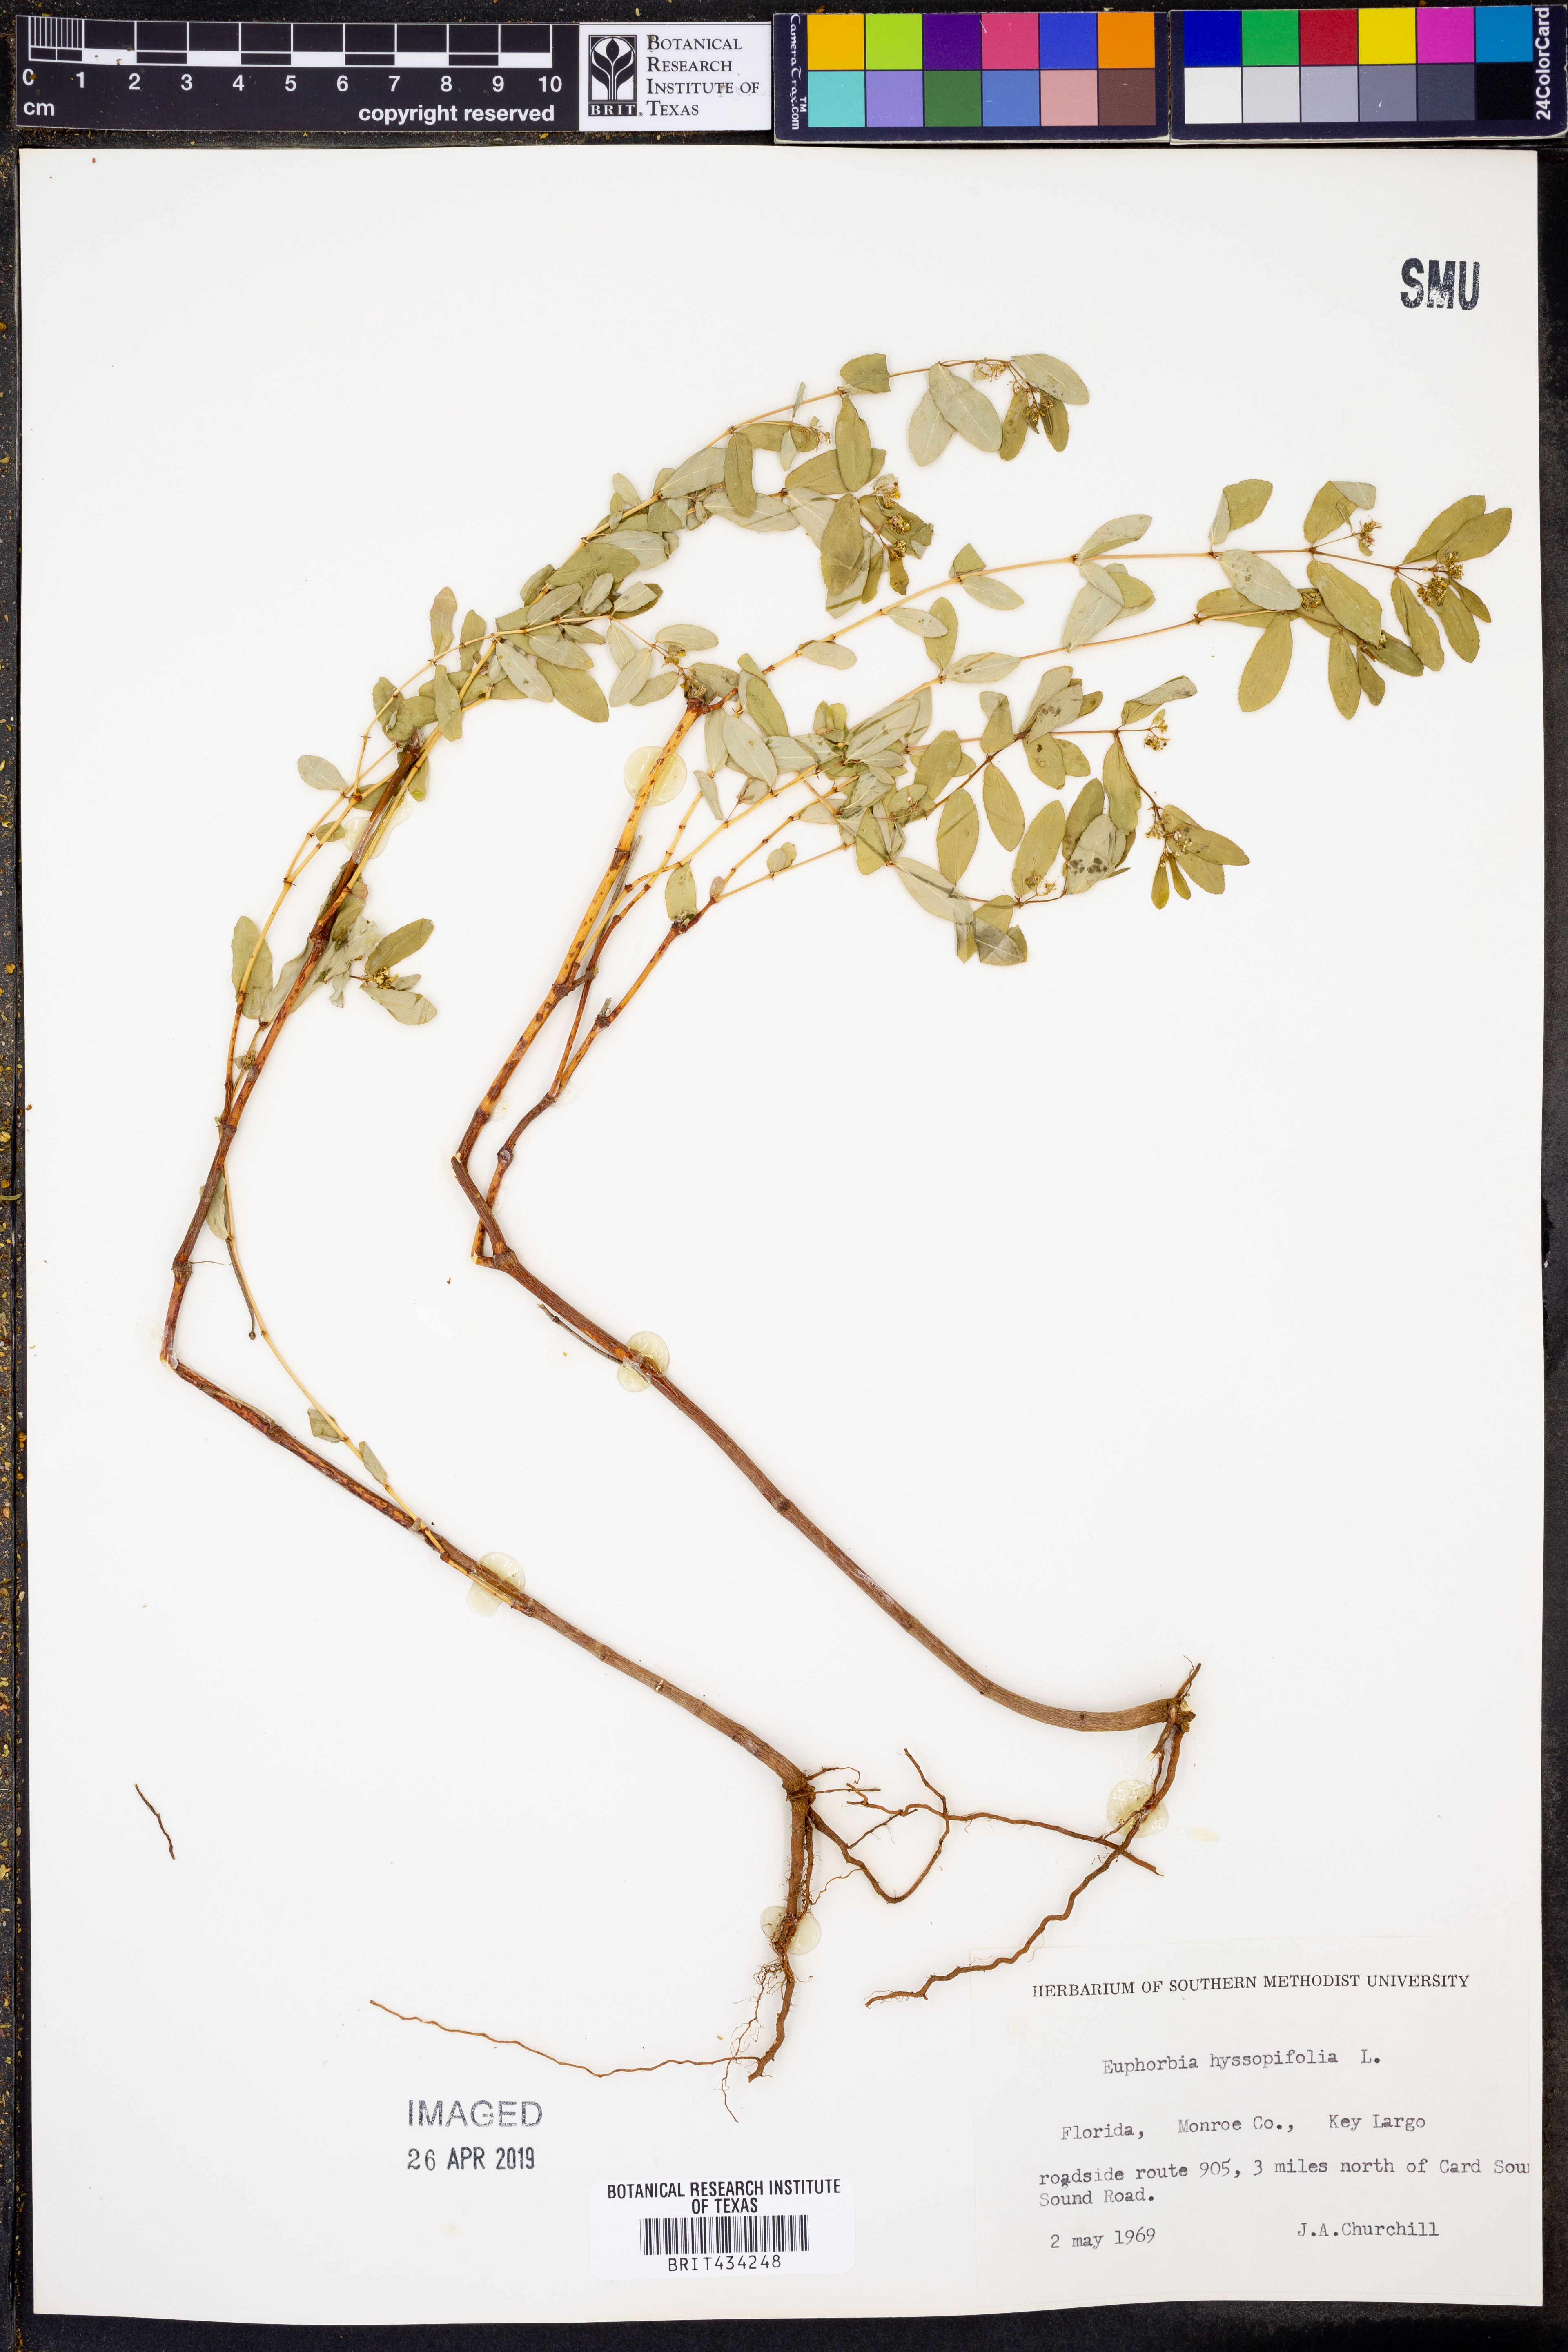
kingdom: Plantae
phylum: Tracheophyta
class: Magnoliopsida
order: Malpighiales
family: Euphorbiaceae
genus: Euphorbia
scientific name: Euphorbia hyssopifolia
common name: Hyssopleaf sandmat
